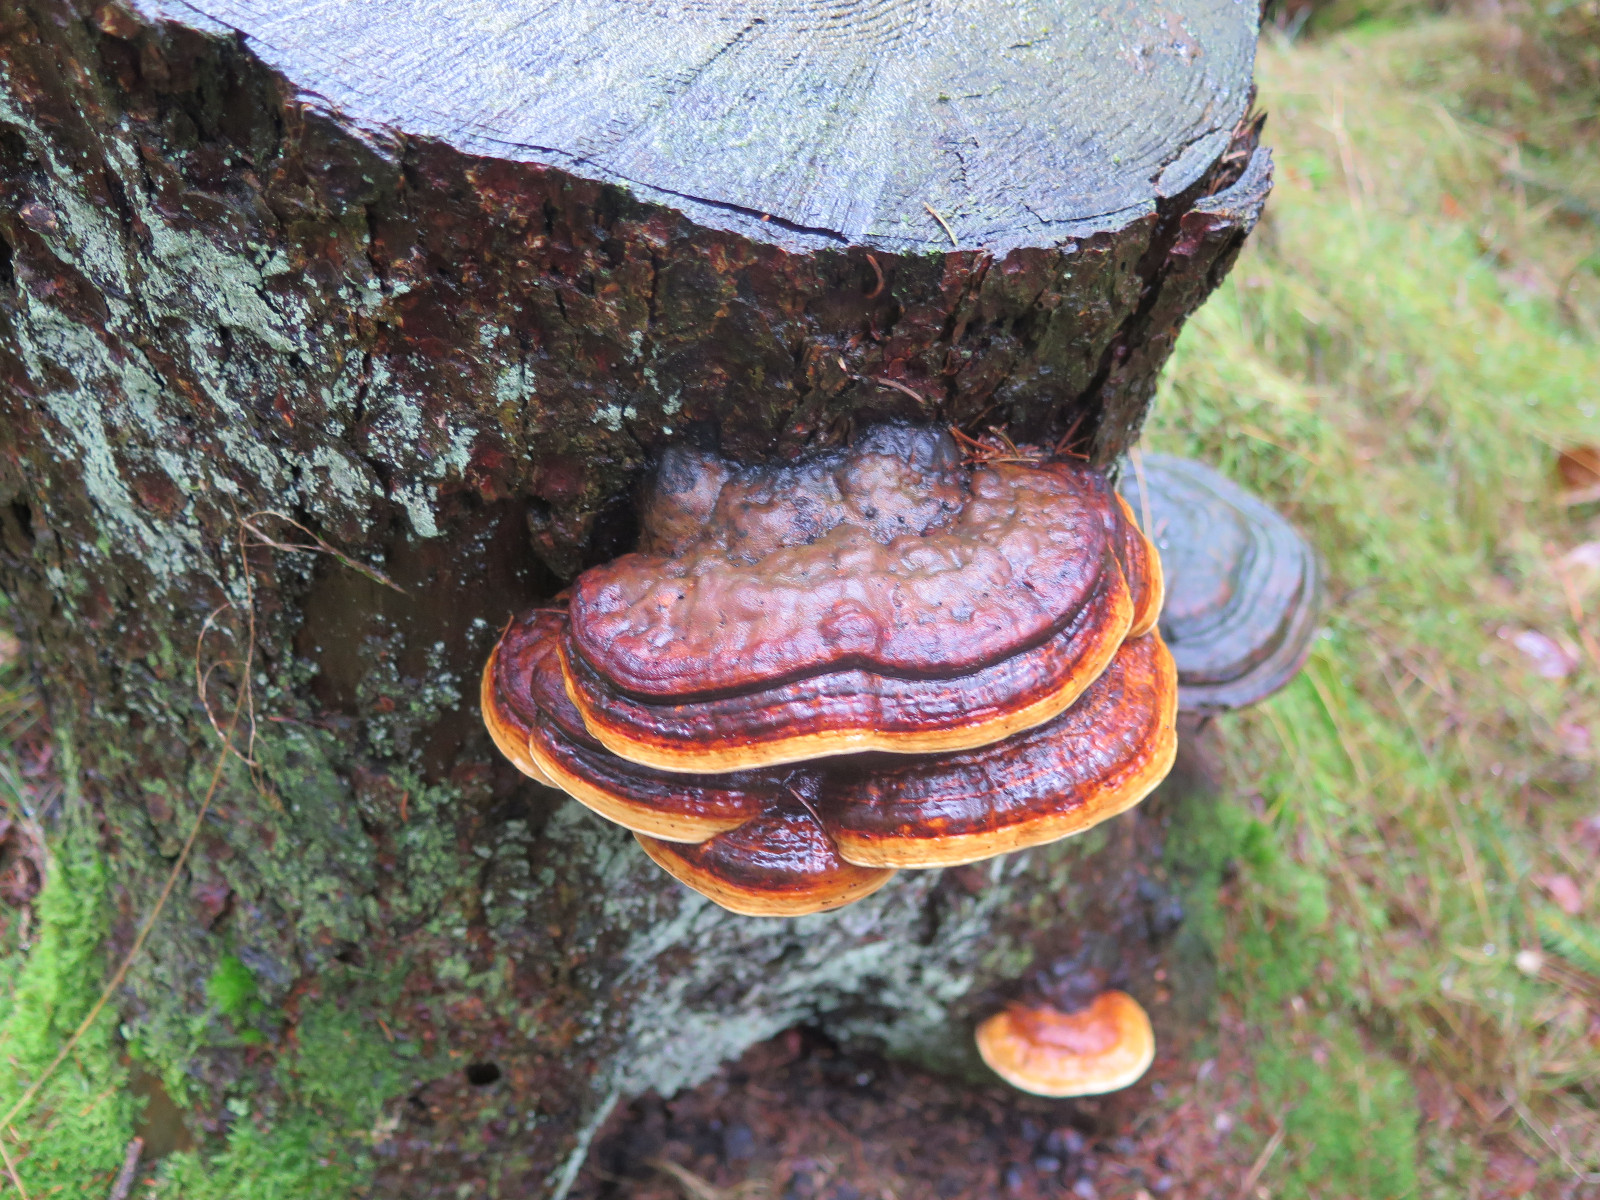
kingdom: Fungi
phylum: Basidiomycota
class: Agaricomycetes
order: Polyporales
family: Fomitopsidaceae
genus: Fomitopsis
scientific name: Fomitopsis pinicola
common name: randbæltet hovporesvamp
